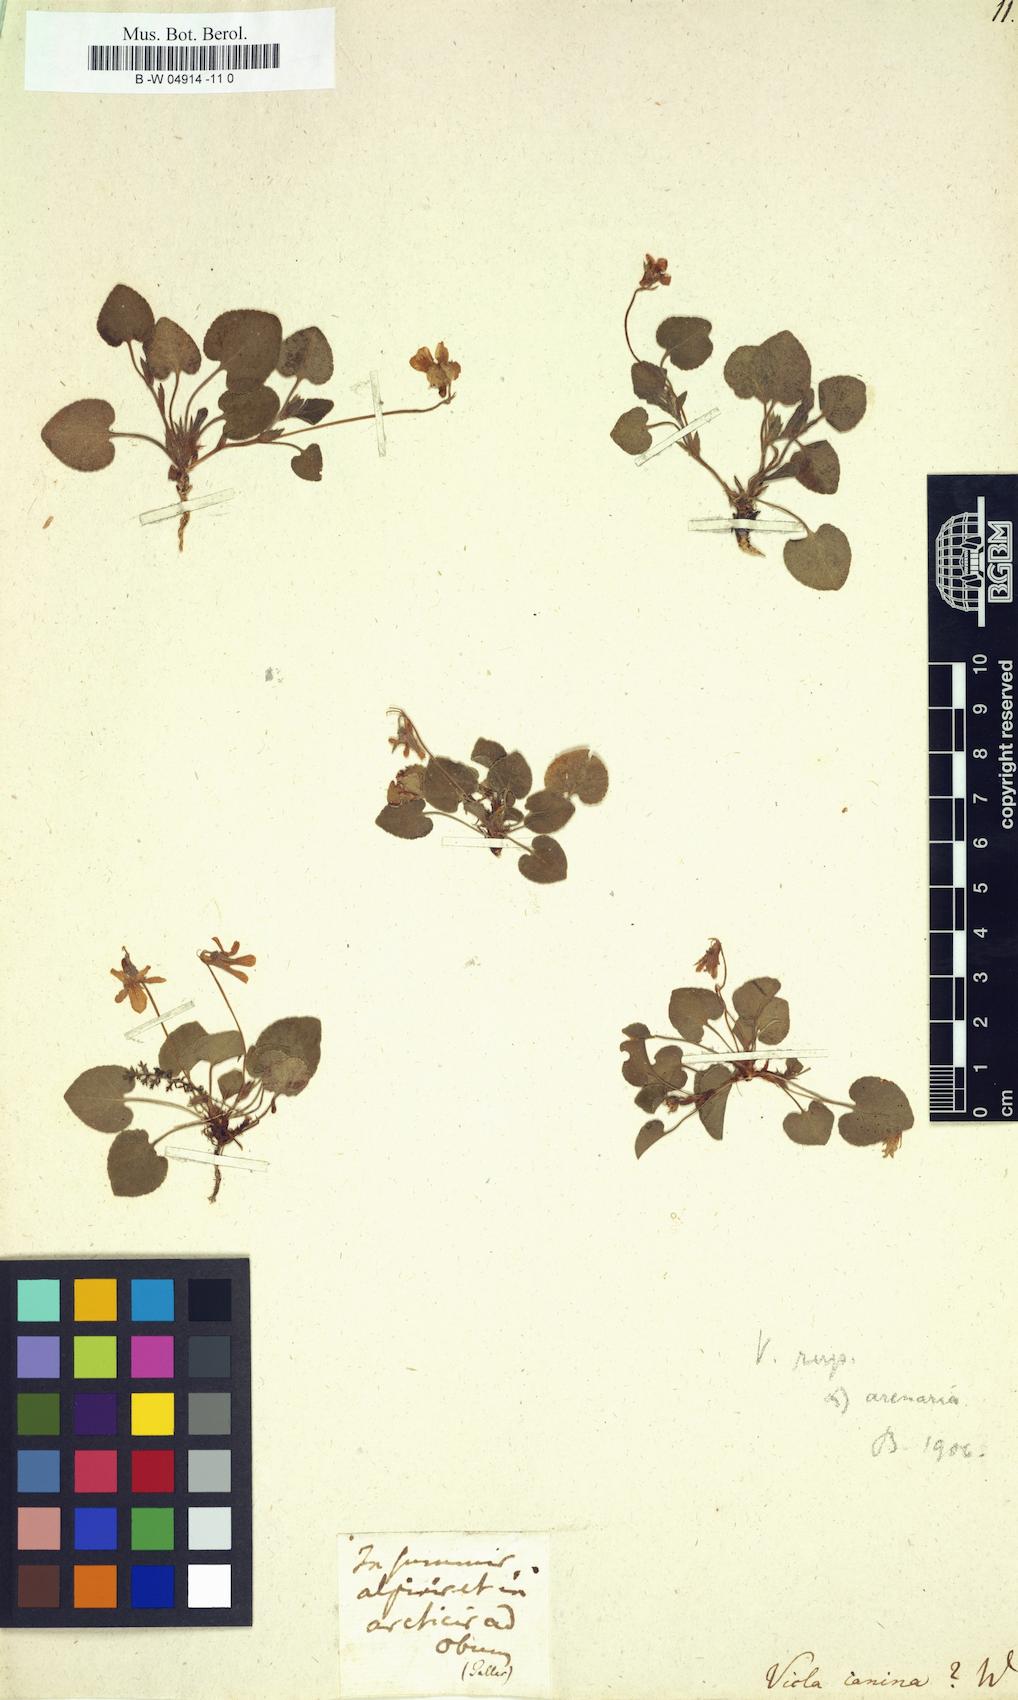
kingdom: Plantae
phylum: Tracheophyta
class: Magnoliopsida
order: Malpighiales
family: Violaceae
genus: Viola
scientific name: Viola canina
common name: Heath dog-violet
